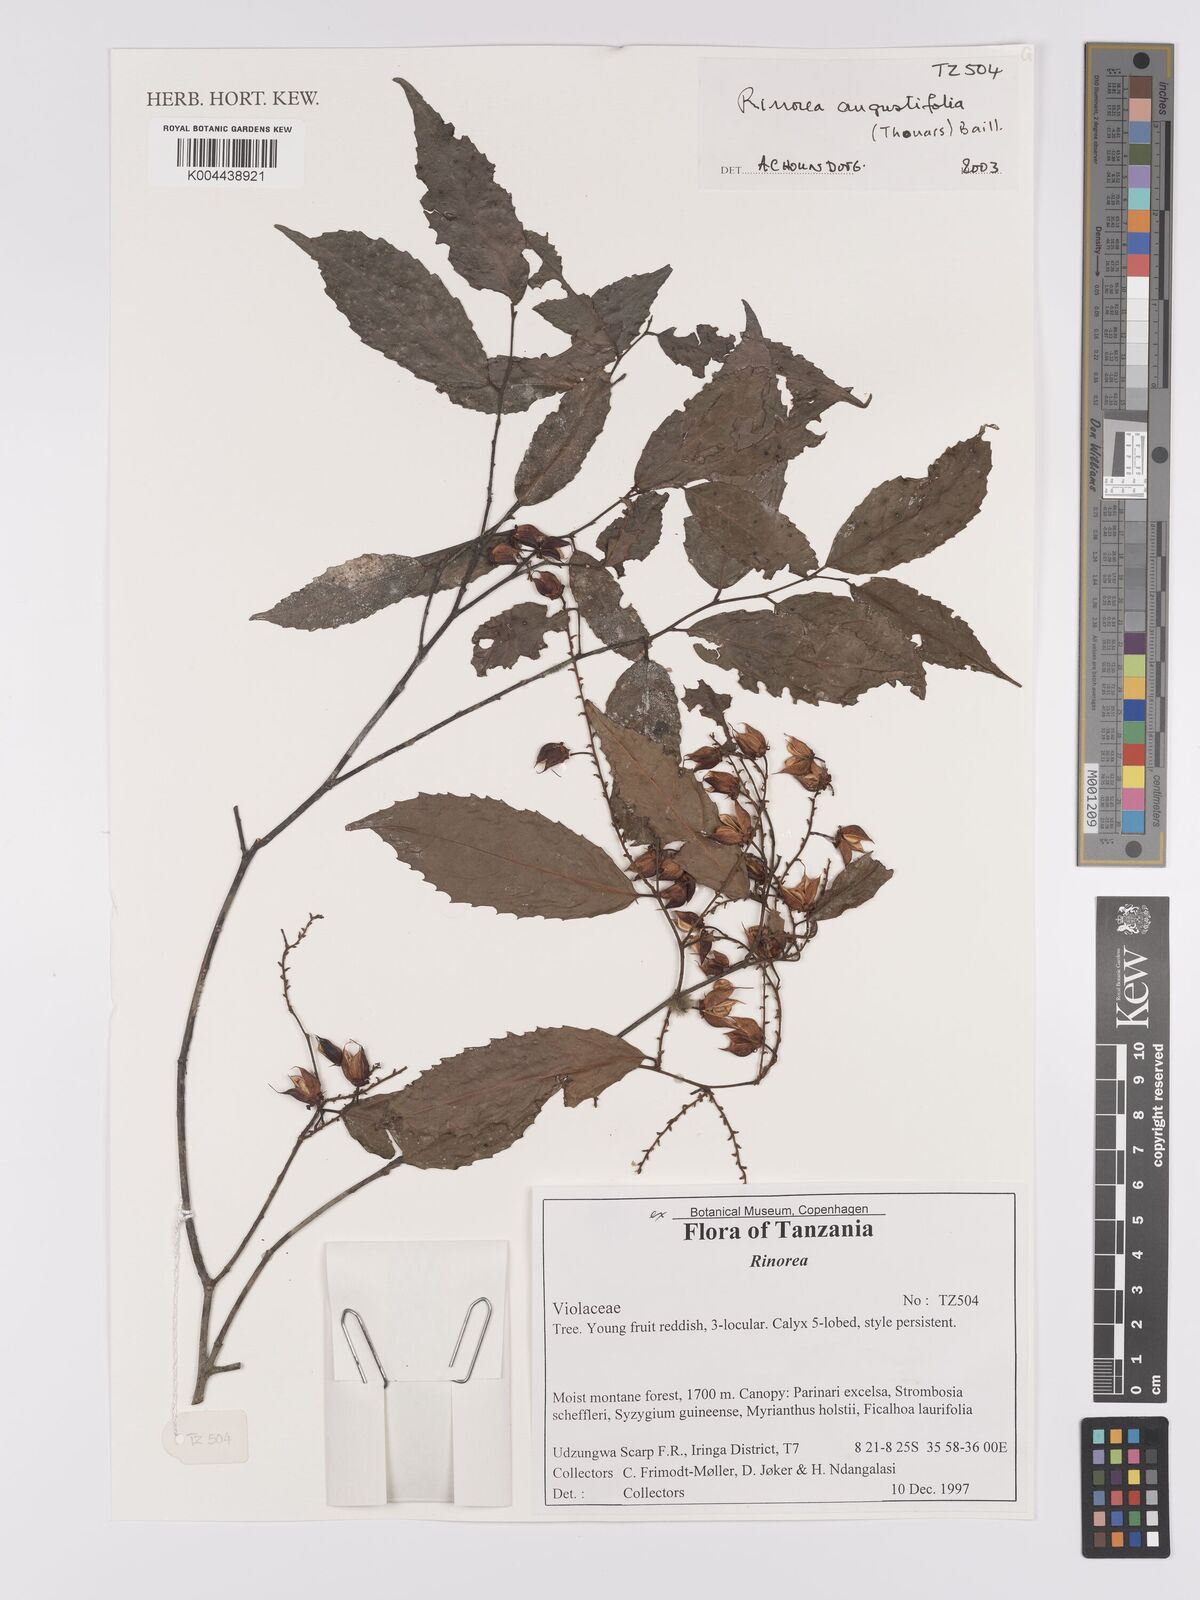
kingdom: Plantae
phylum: Tracheophyta
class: Magnoliopsida
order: Malpighiales
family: Violaceae
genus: Rinorea
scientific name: Rinorea angustifolia
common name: White violet-bush
